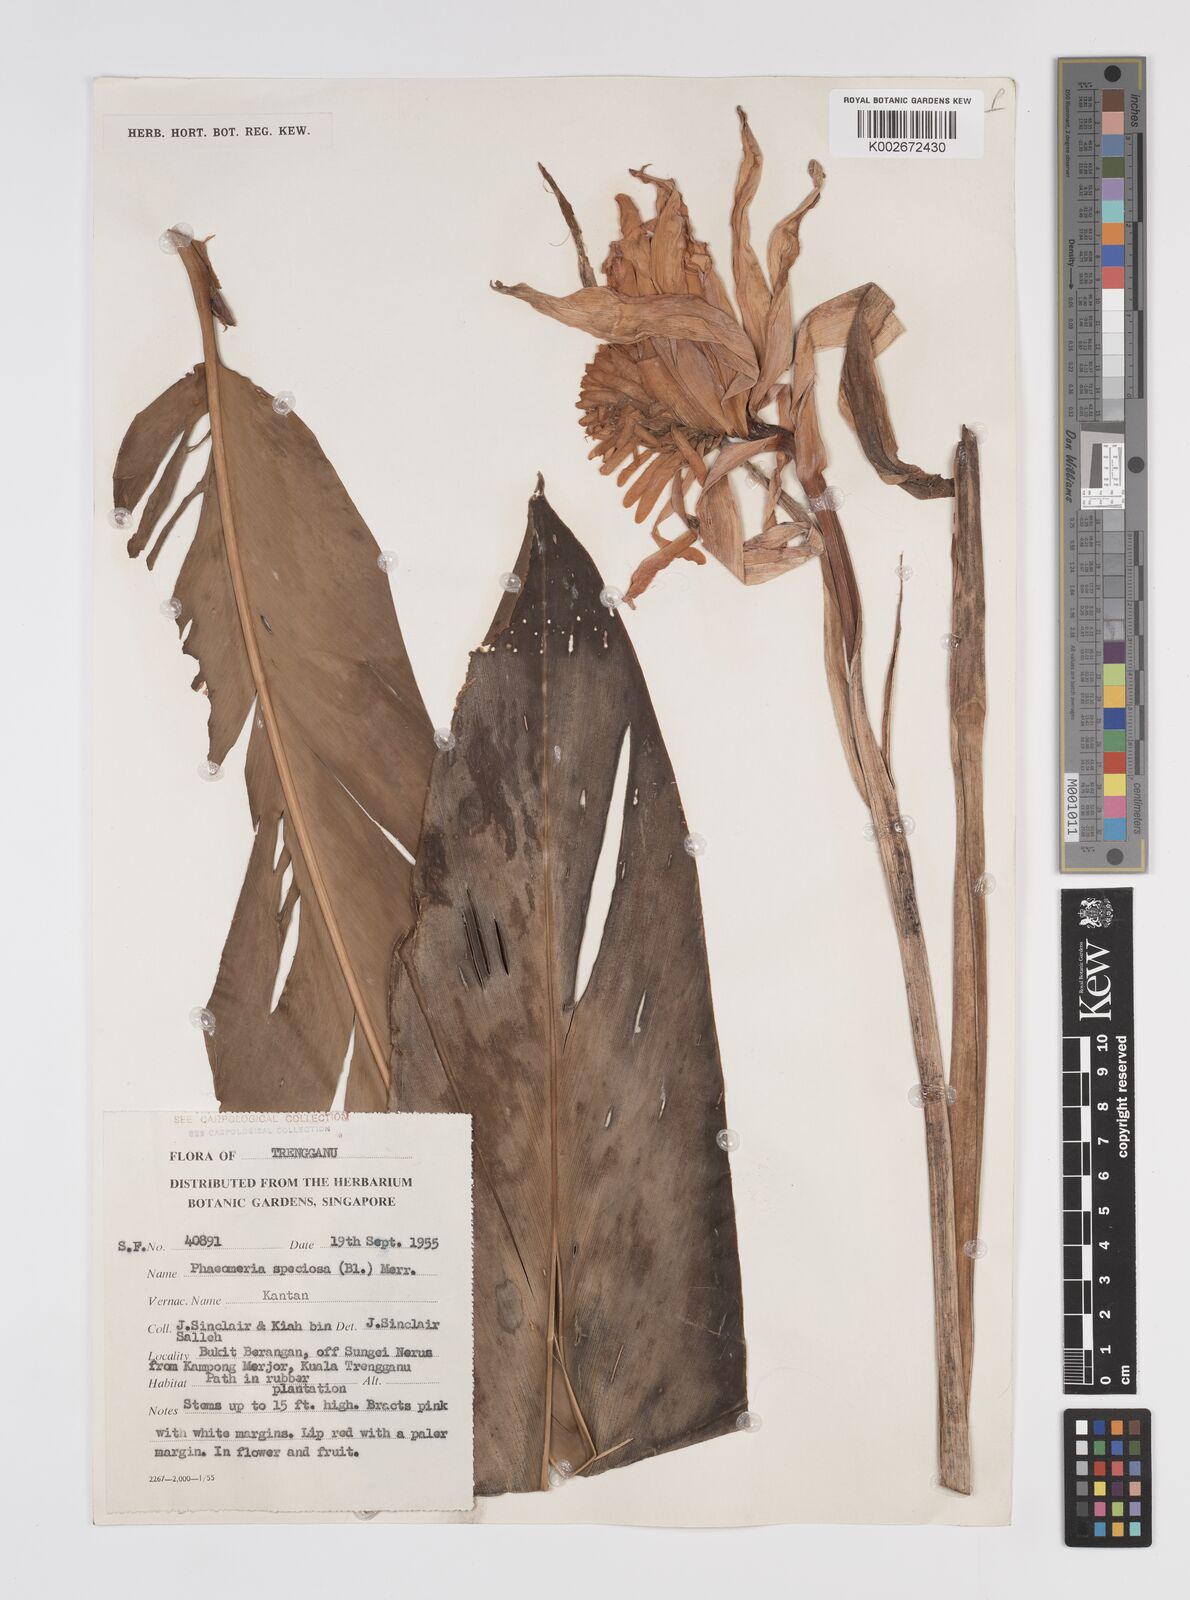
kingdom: Plantae
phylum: Tracheophyta
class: Liliopsida
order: Zingiberales
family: Zingiberaceae
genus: Etlingera
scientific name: Etlingera elatior
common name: Philippine waxflower
